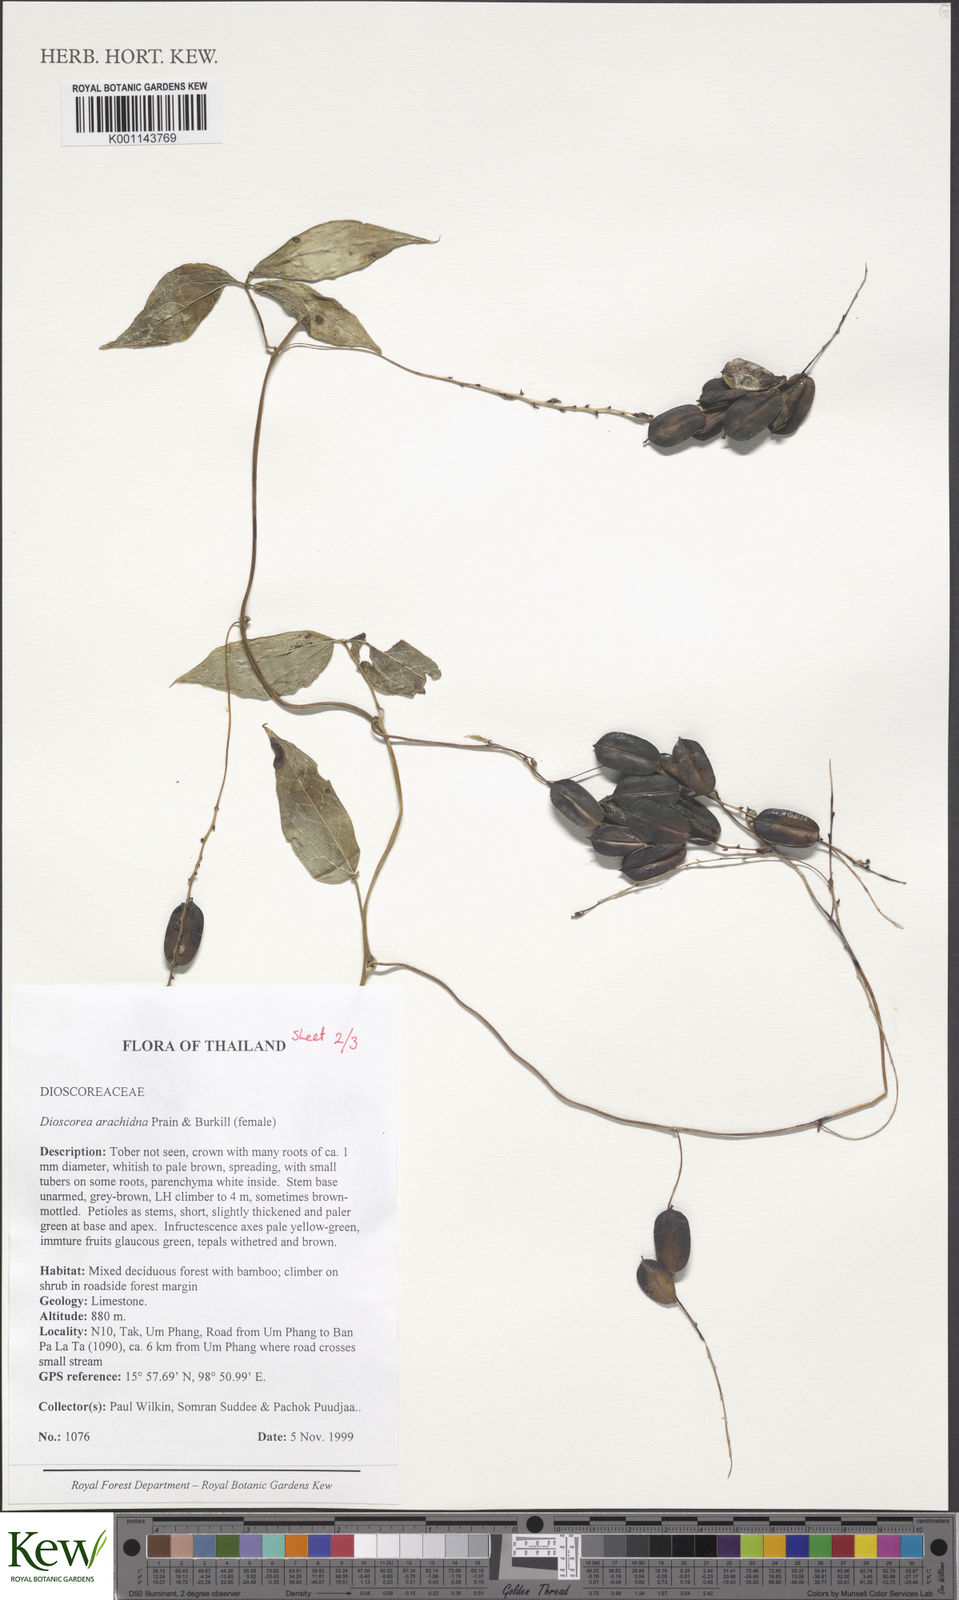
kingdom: Plantae
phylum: Tracheophyta
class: Liliopsida
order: Dioscoreales
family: Dioscoreaceae
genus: Dioscorea
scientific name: Dioscorea arachidna
